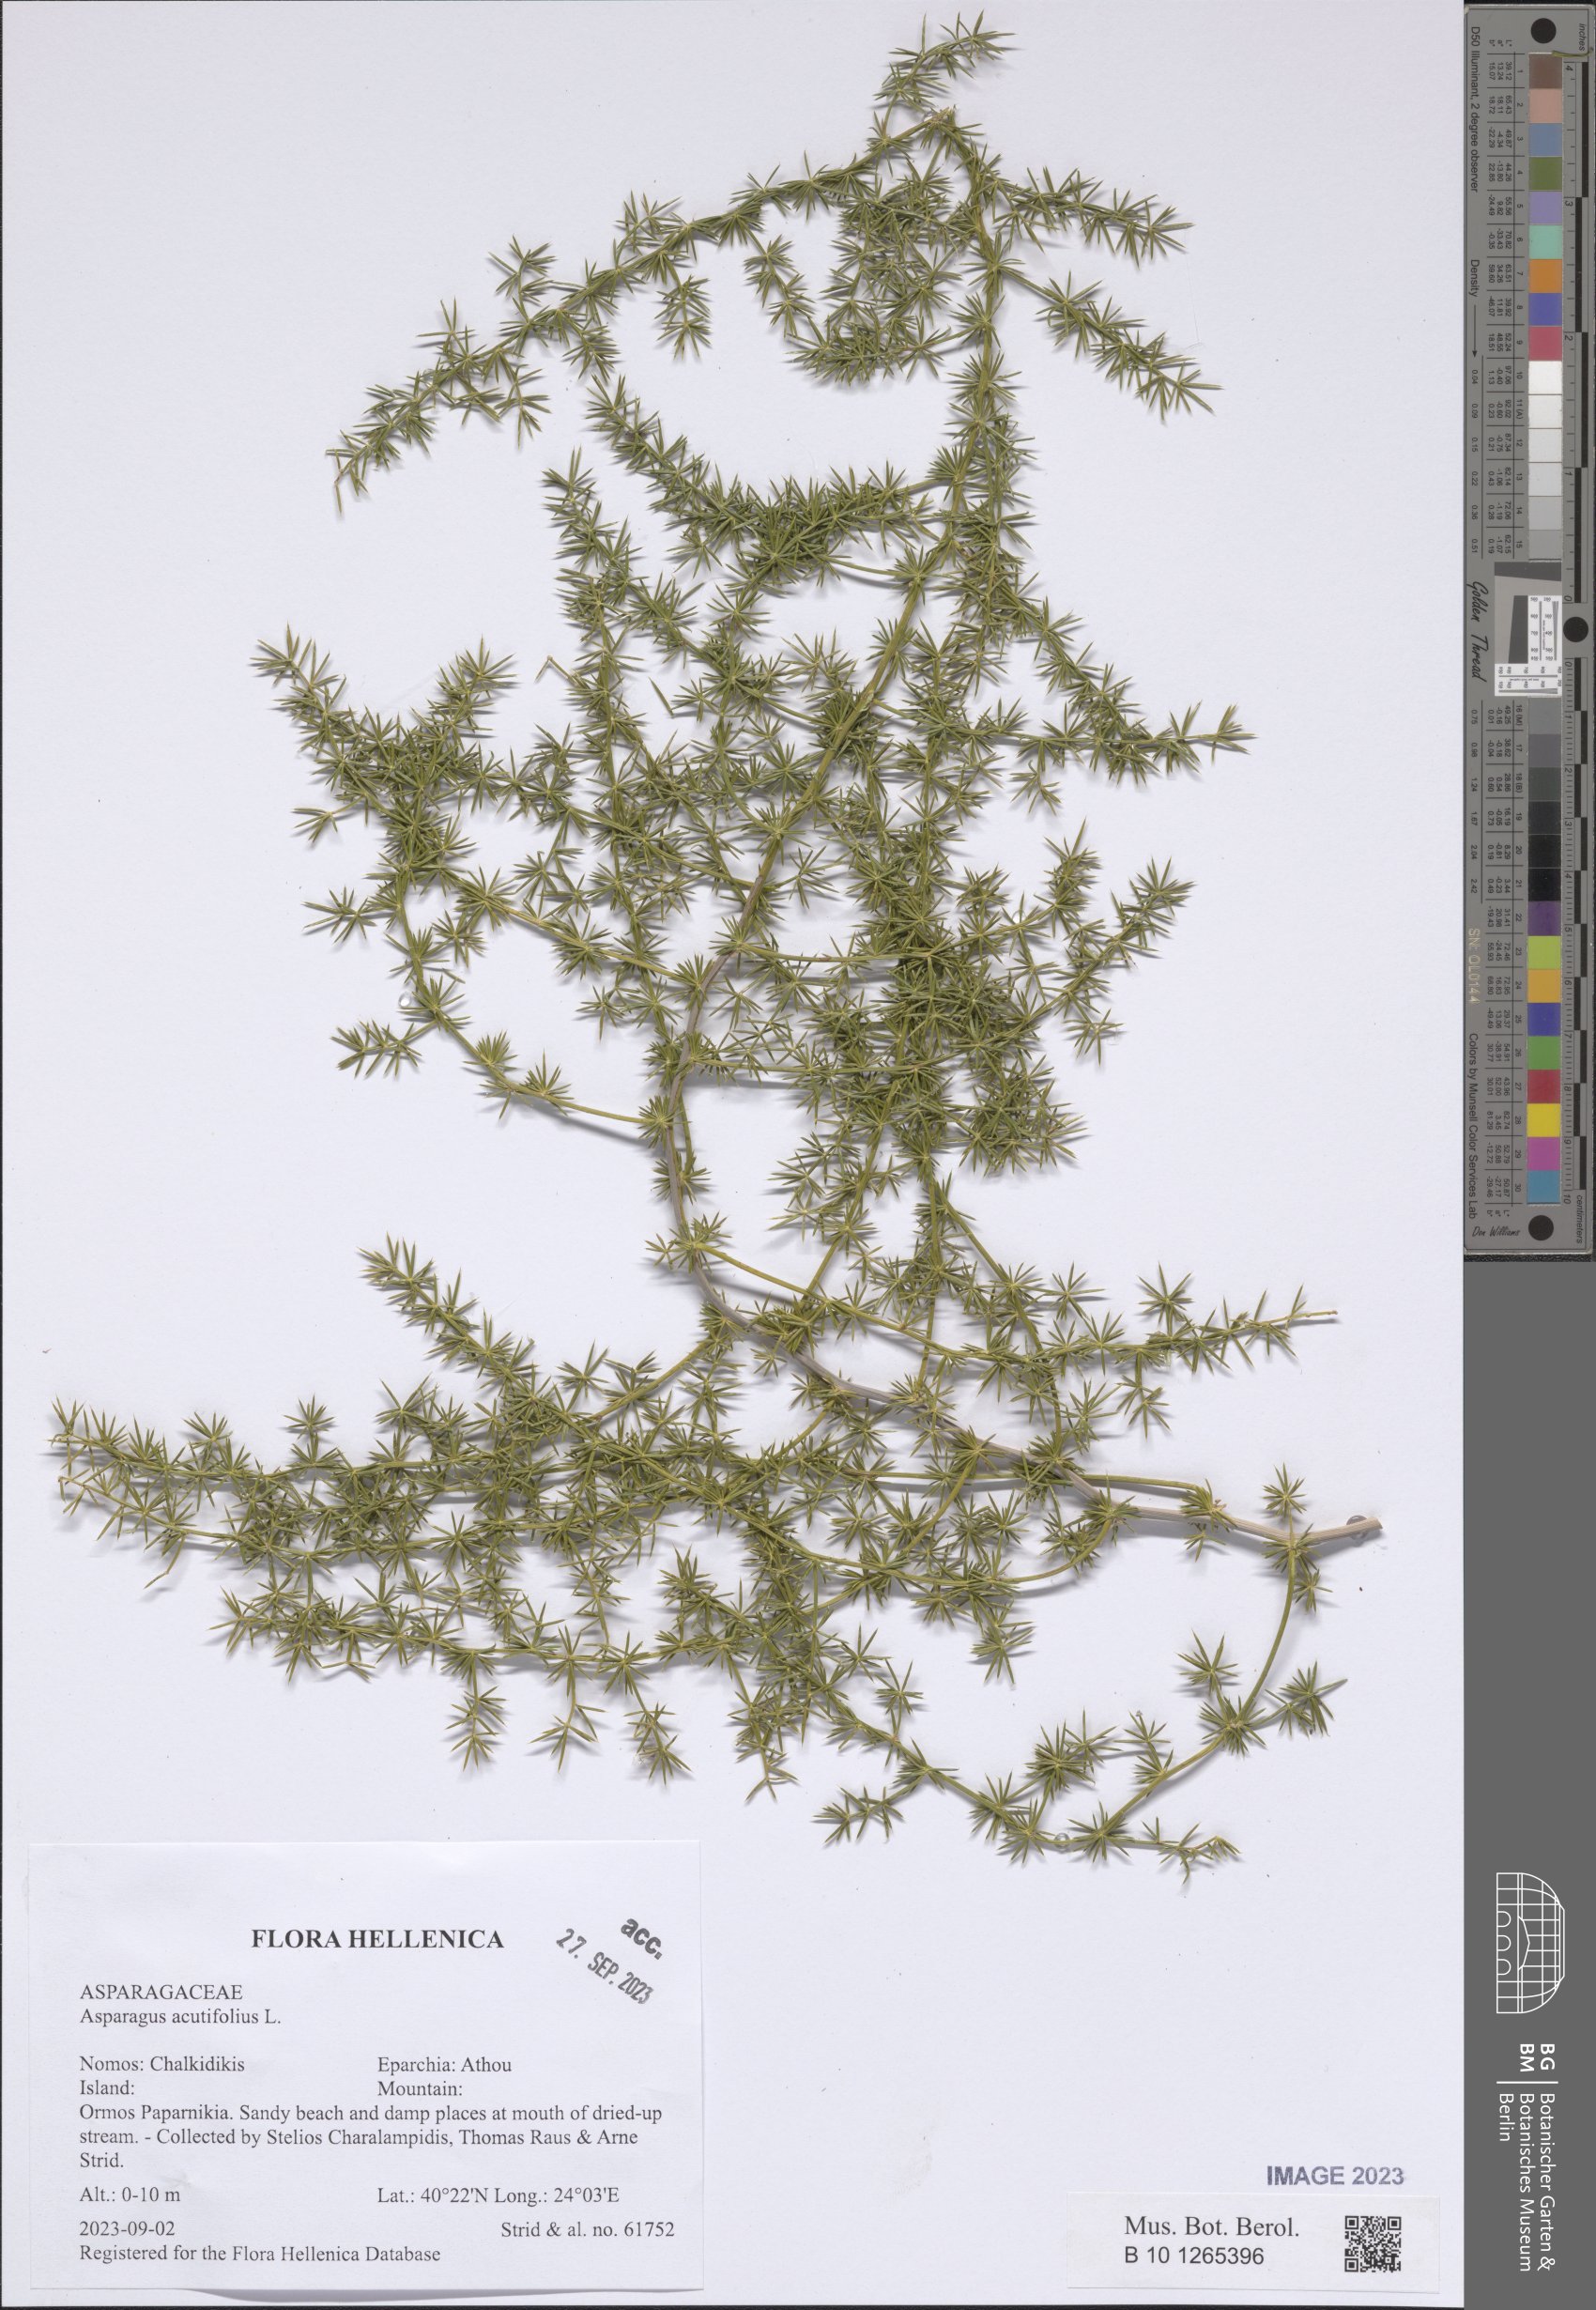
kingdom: Plantae
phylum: Tracheophyta
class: Liliopsida
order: Asparagales
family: Asparagaceae
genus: Asparagus
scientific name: Asparagus acutifolius
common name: Wild asparagus
